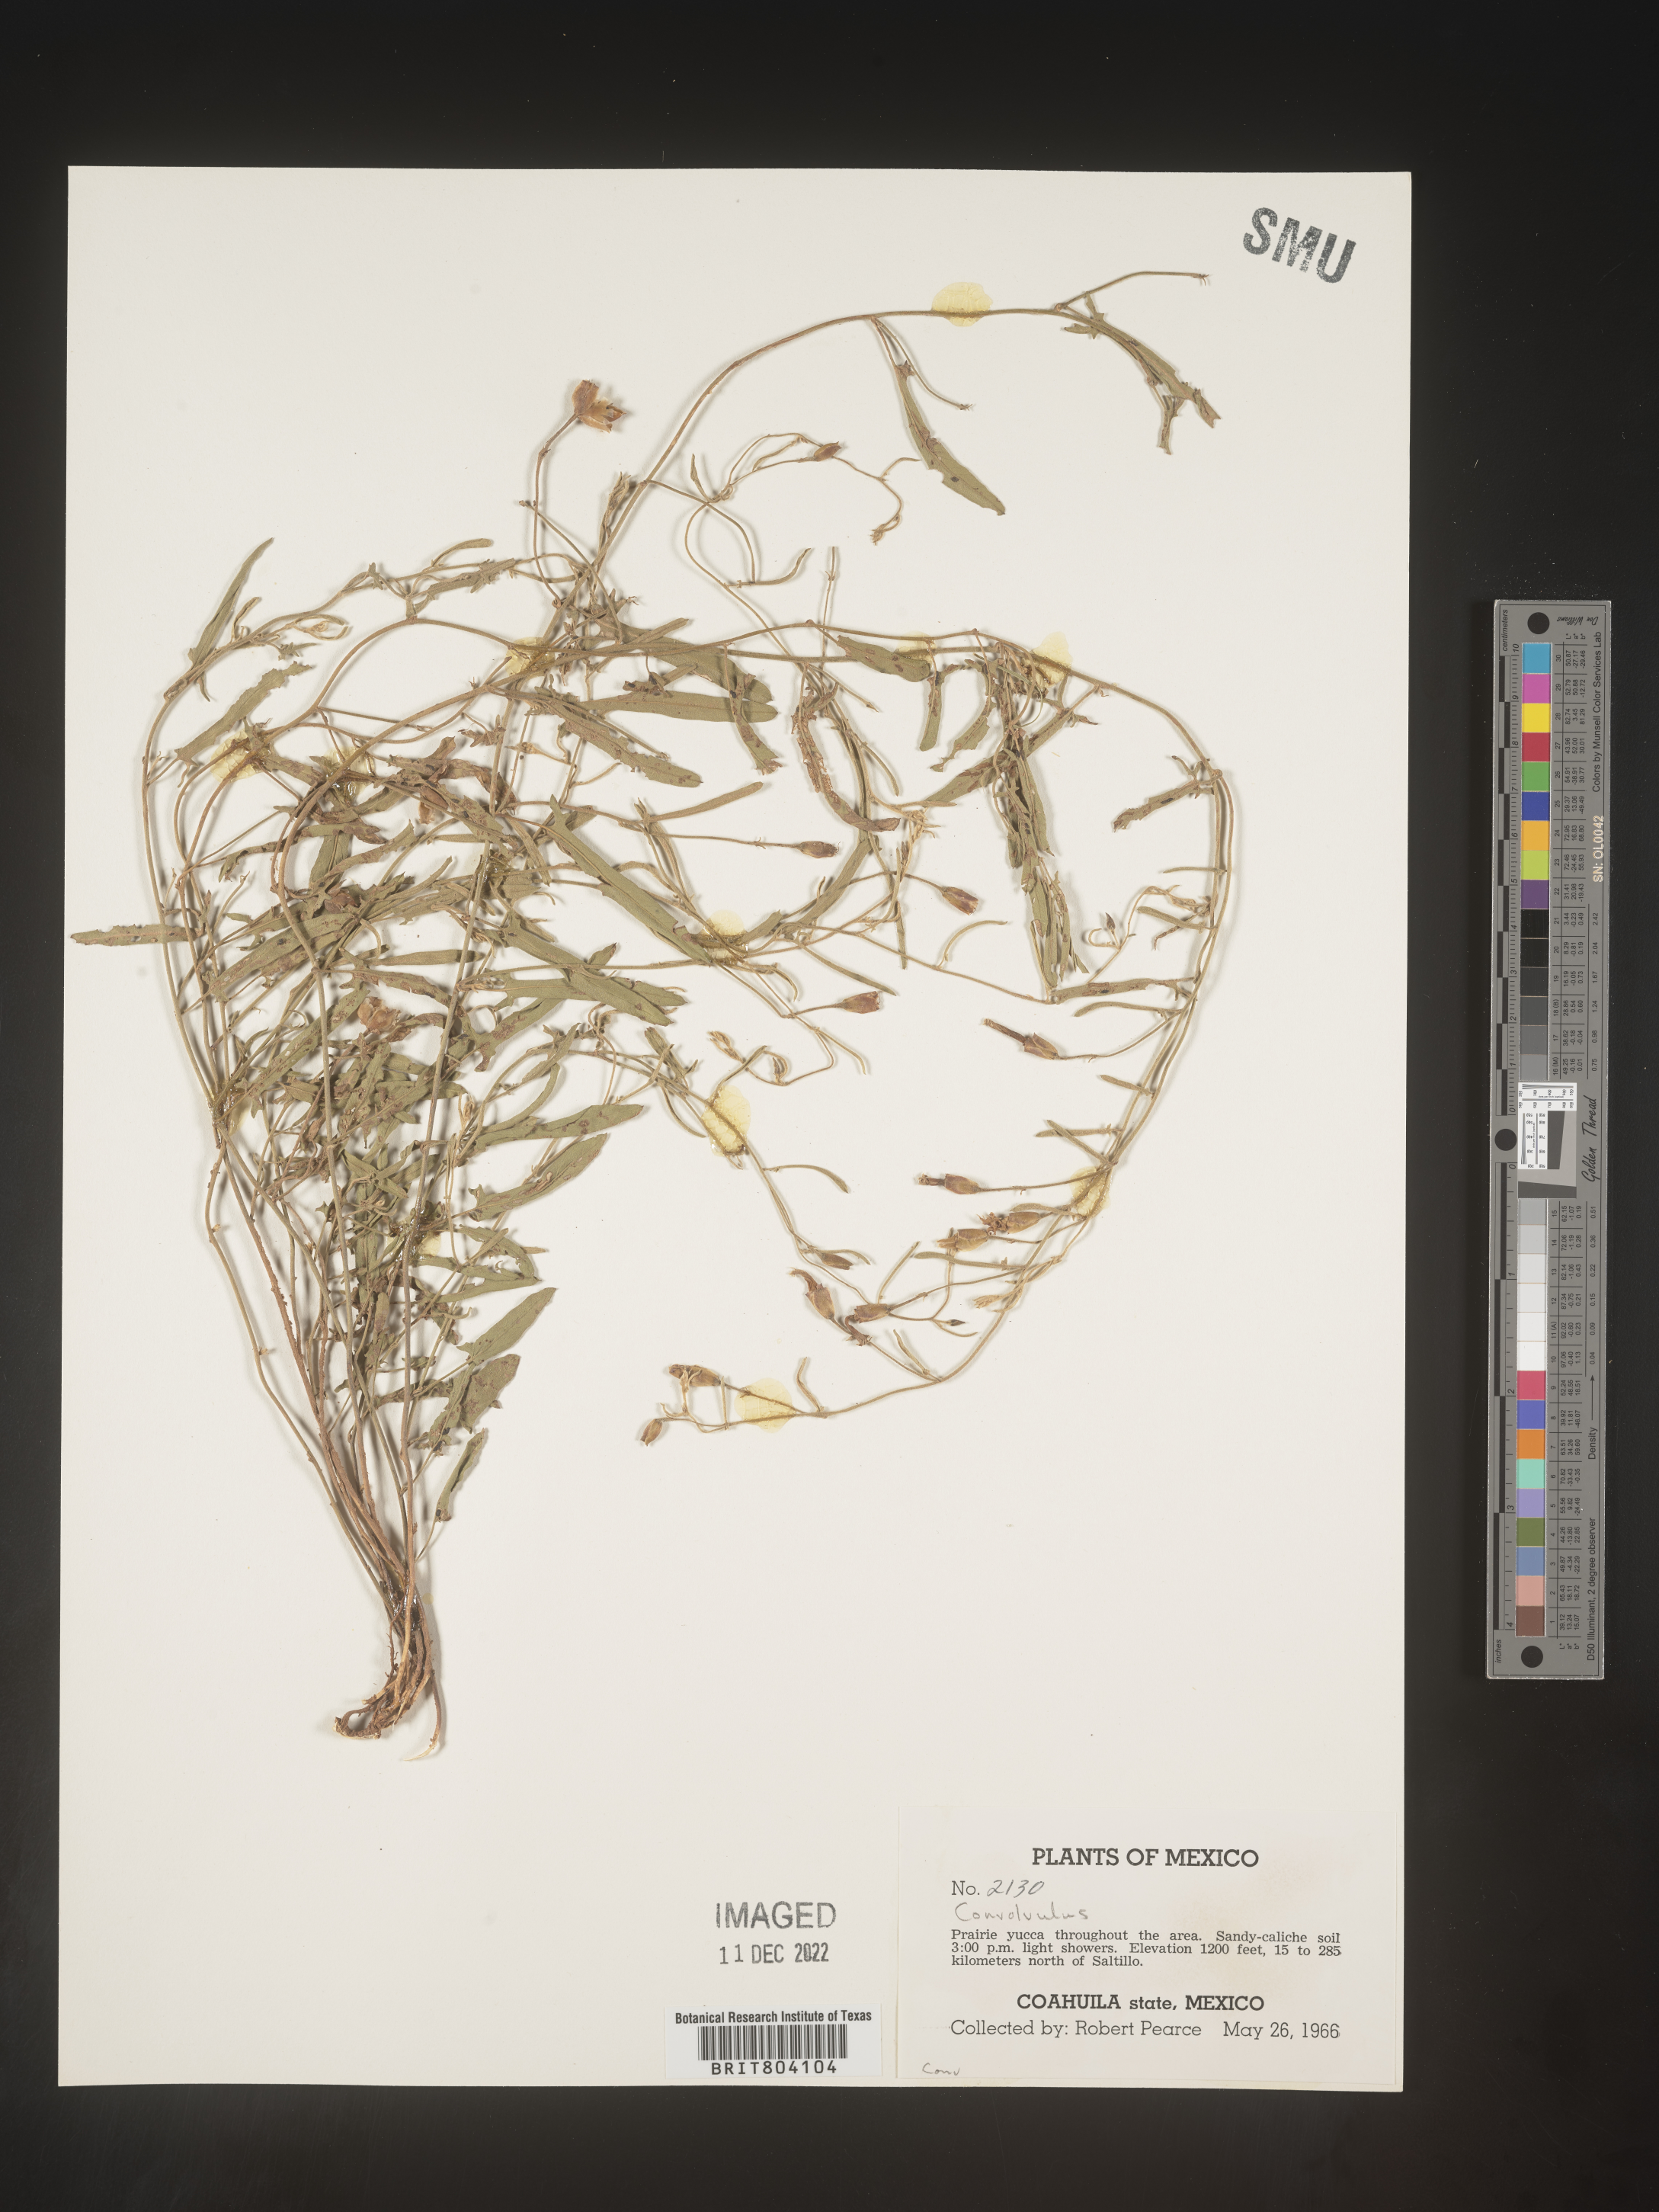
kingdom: Plantae
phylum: Tracheophyta
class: Magnoliopsida
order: Solanales
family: Convolvulaceae
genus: Convolvulus
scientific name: Convolvulus
